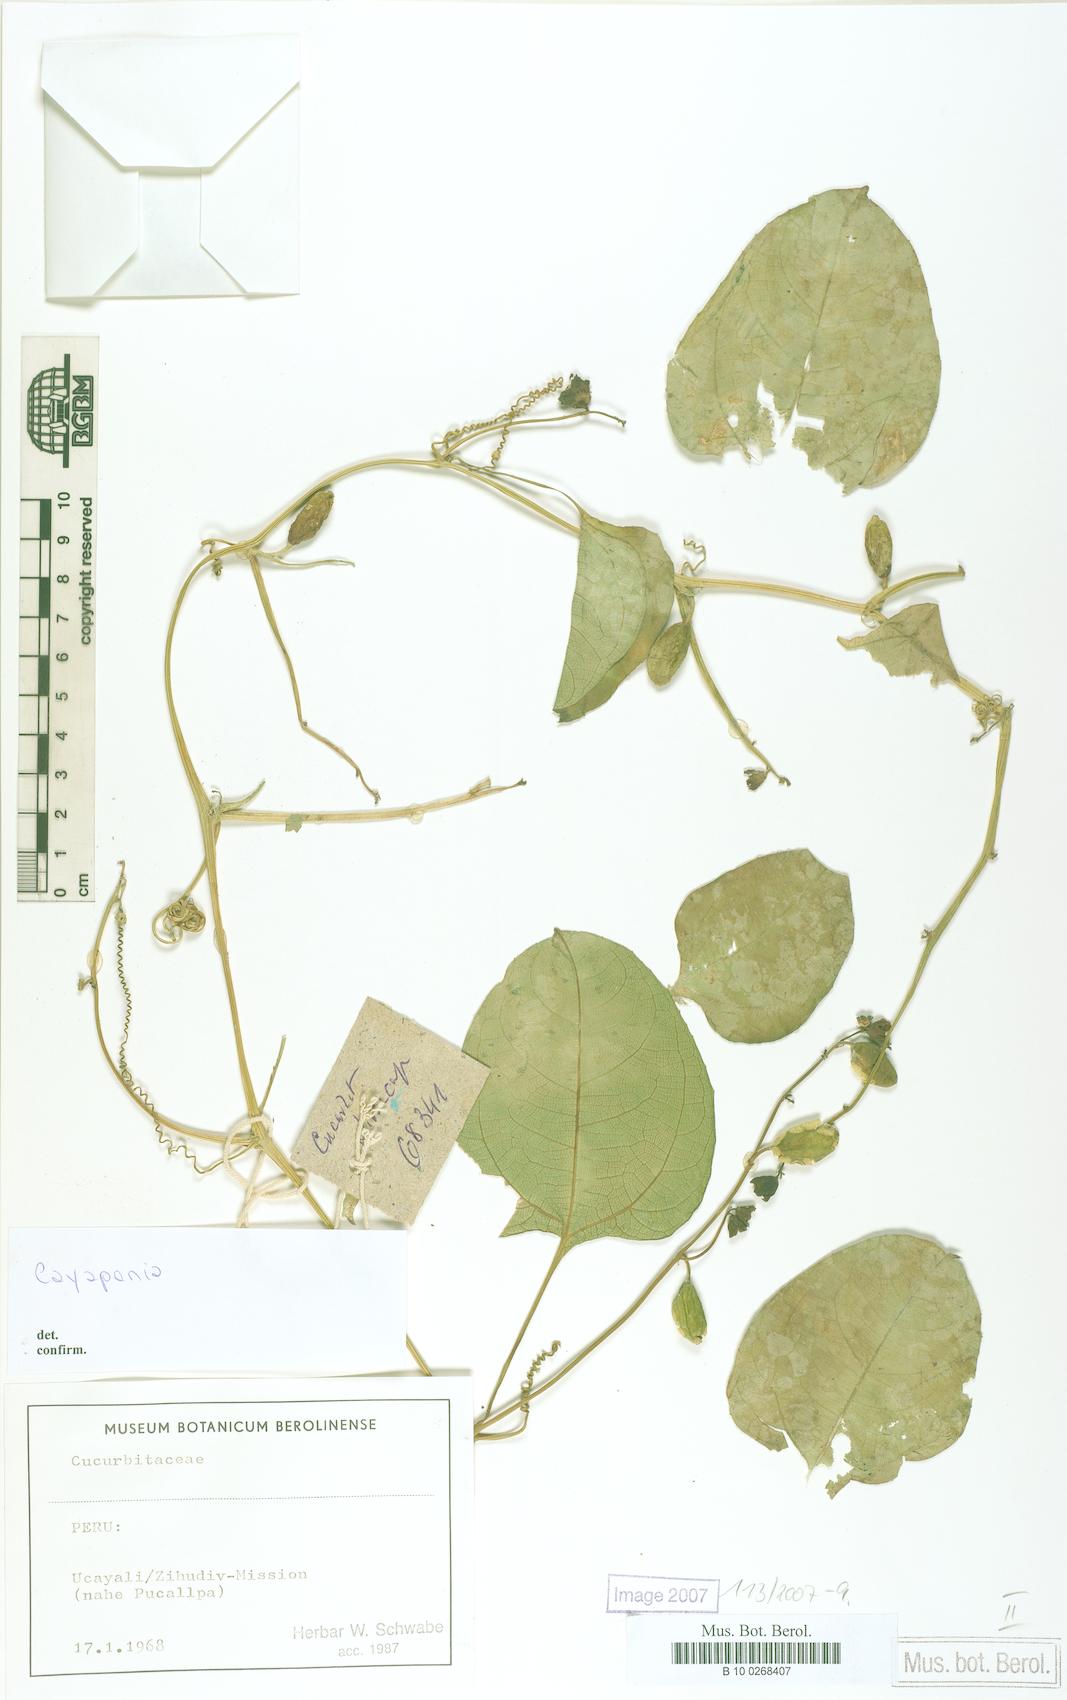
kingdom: Plantae
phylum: Tracheophyta
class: Magnoliopsida
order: Cucurbitales
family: Cucurbitaceae
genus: Cayaponia
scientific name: Cayaponia glandulosa
